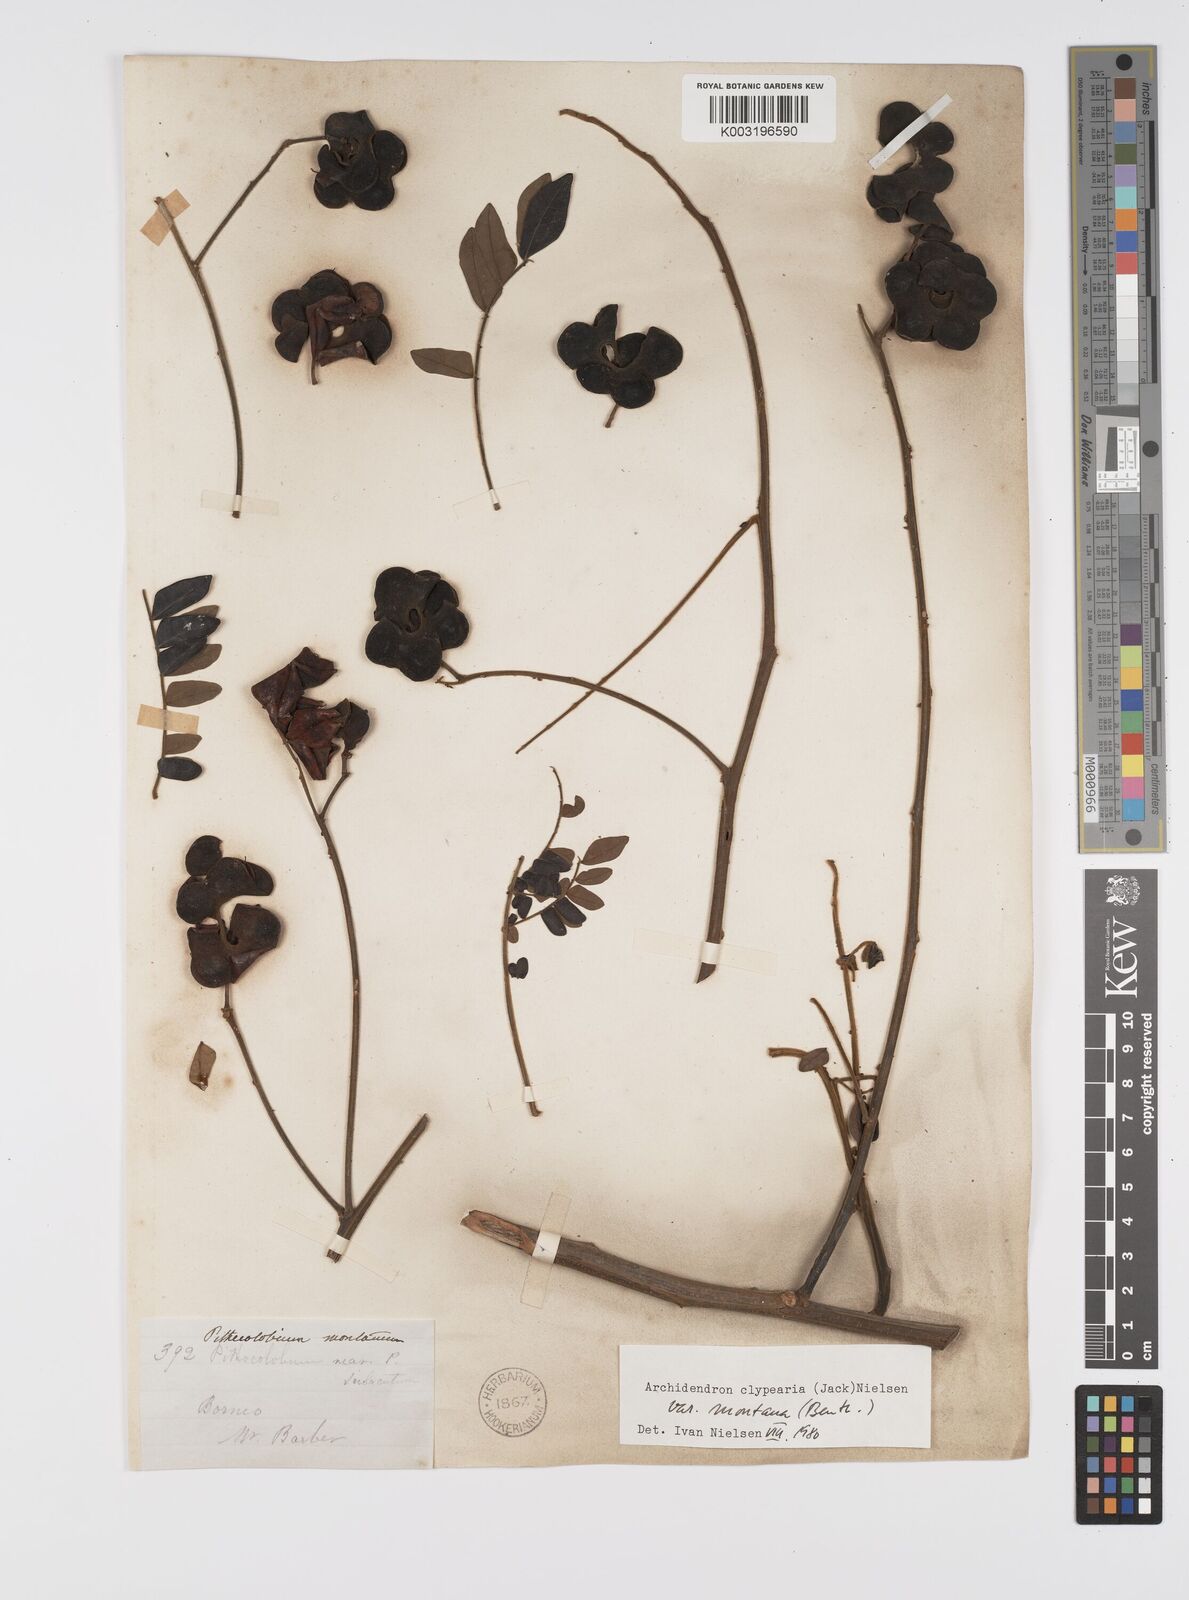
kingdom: Plantae
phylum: Tracheophyta
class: Magnoliopsida
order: Fabales
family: Fabaceae
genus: Archidendron
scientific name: Archidendron clypearia
